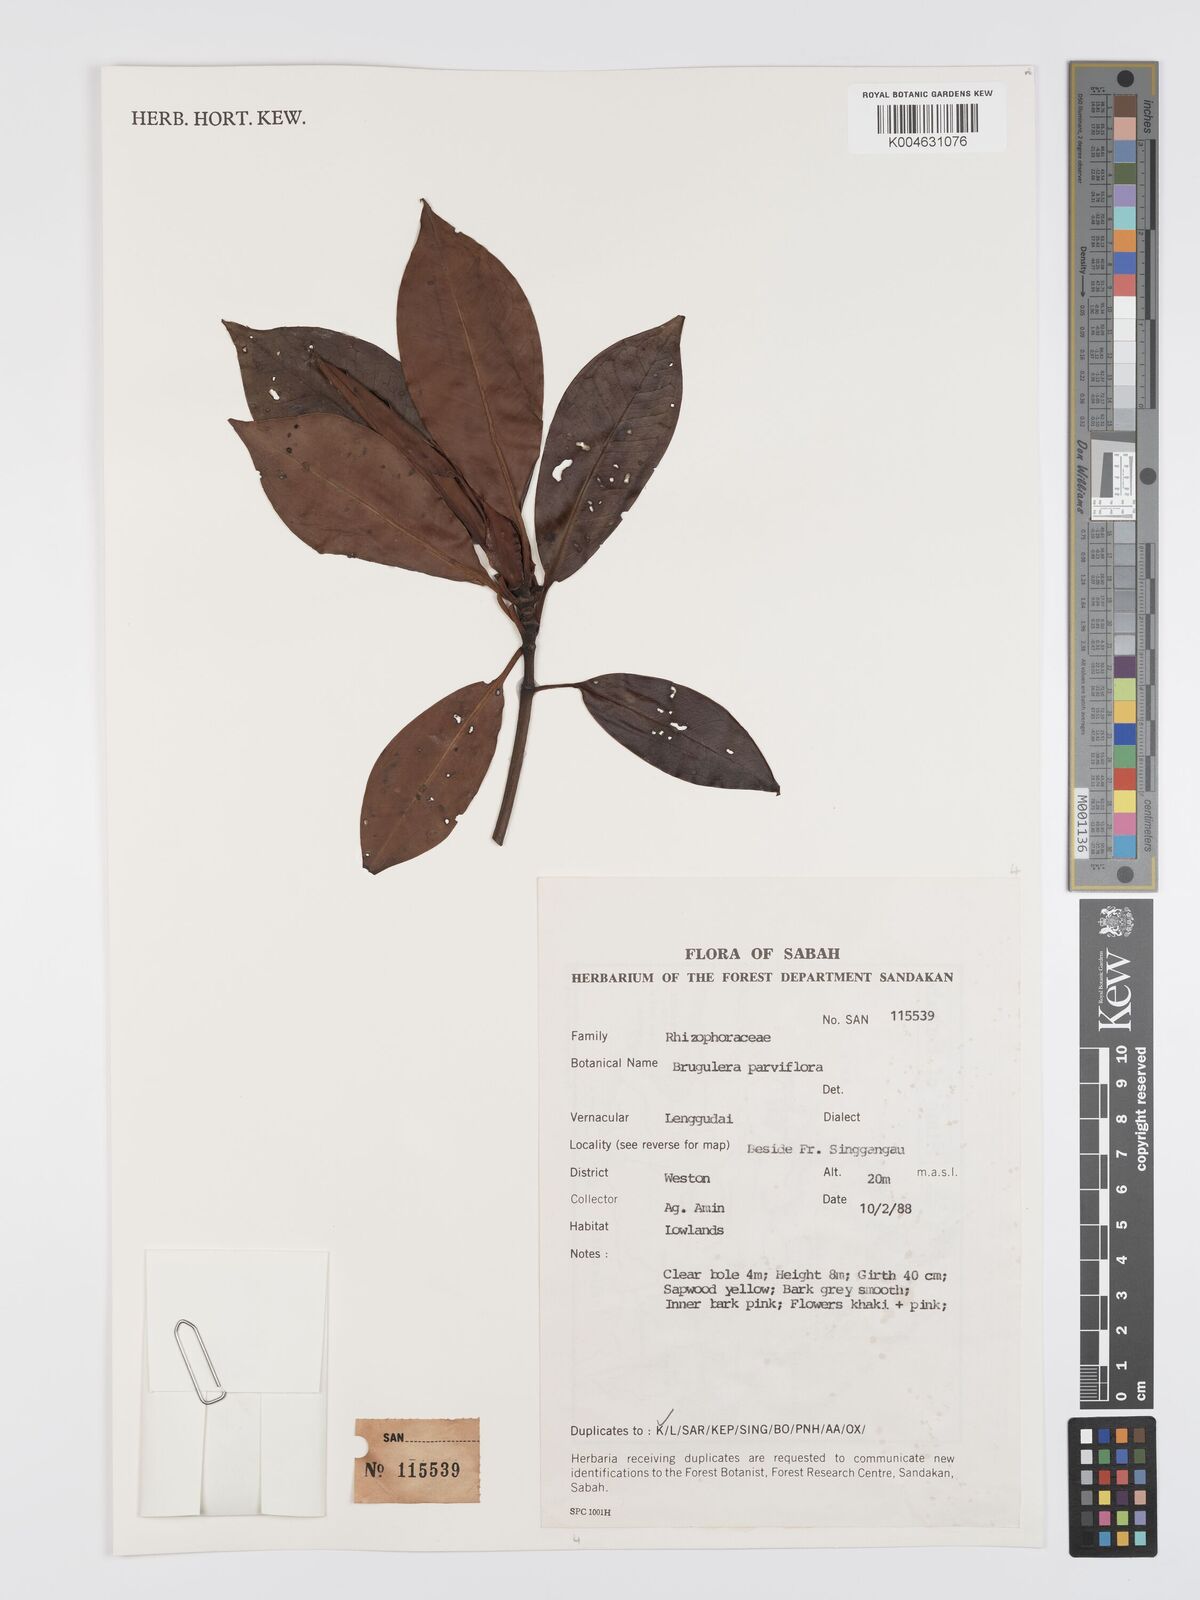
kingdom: Plantae
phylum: Tracheophyta
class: Magnoliopsida
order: Malpighiales
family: Rhizophoraceae
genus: Bruguiera
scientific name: Bruguiera parviflora
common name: Smallflower bruguiera
